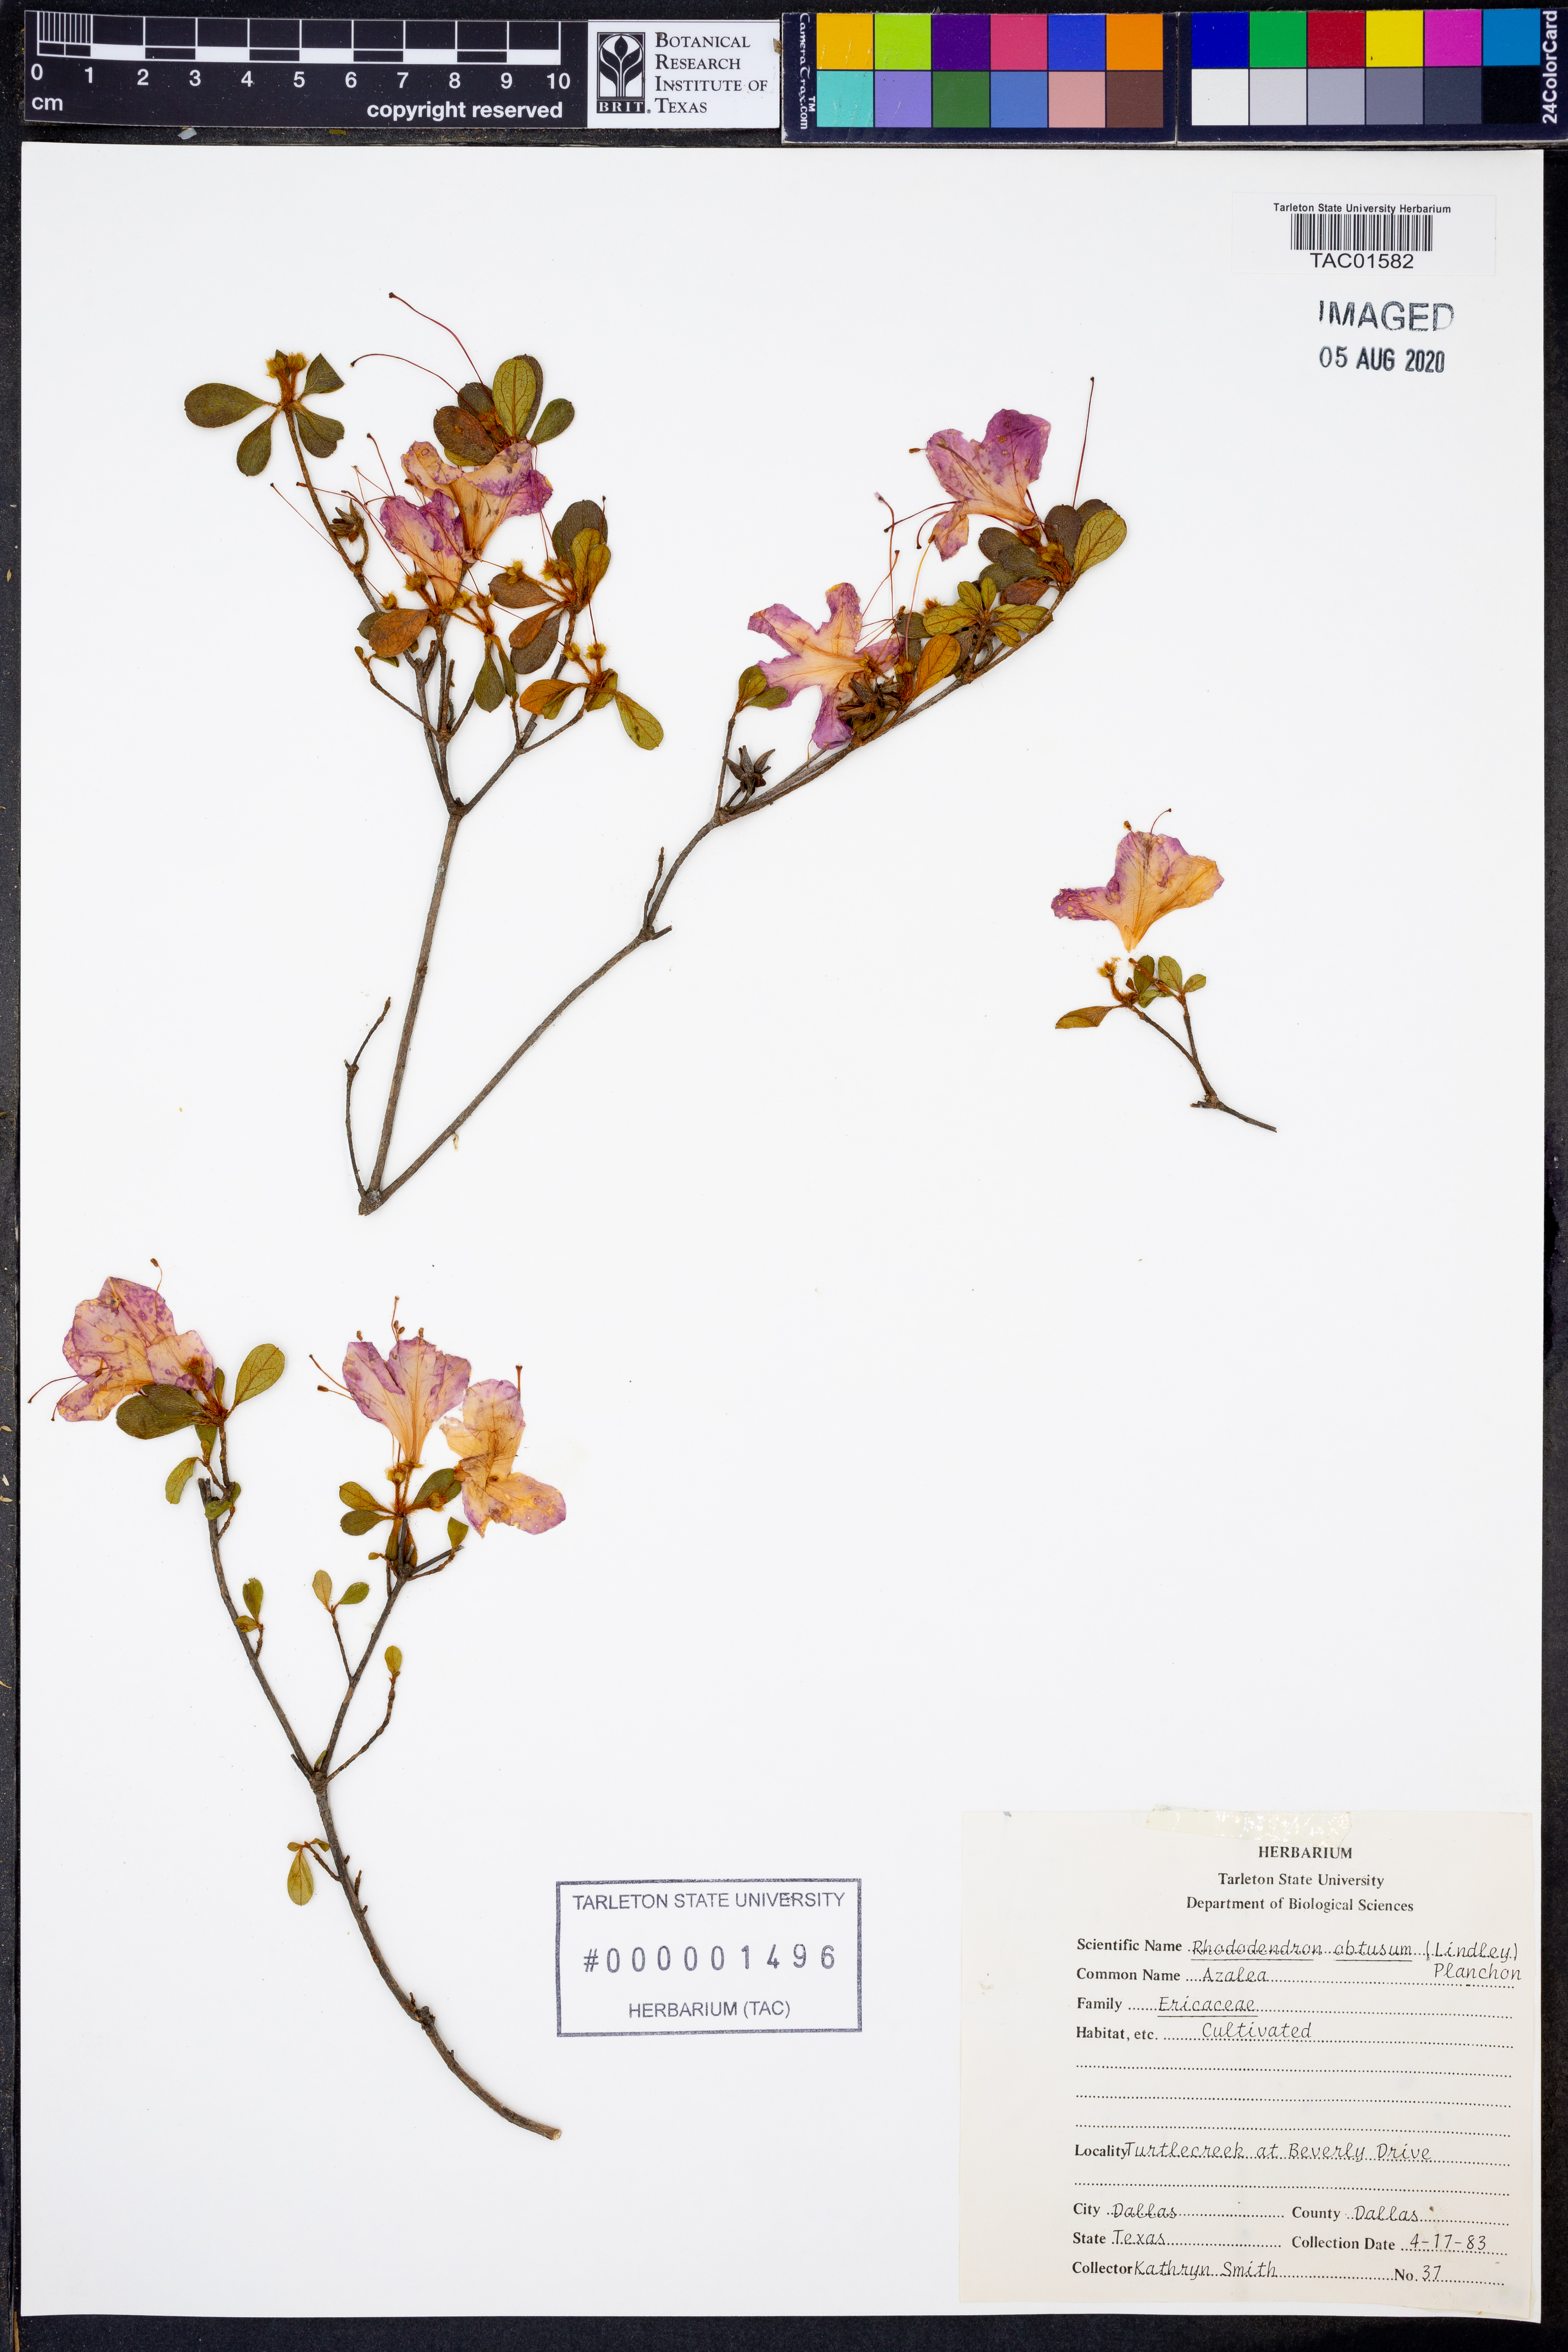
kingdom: Plantae
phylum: Tracheophyta
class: Magnoliopsida
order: Ericales
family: Ericaceae
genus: Rhododendron
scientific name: Rhododendron ponticum
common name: Rhododendron
